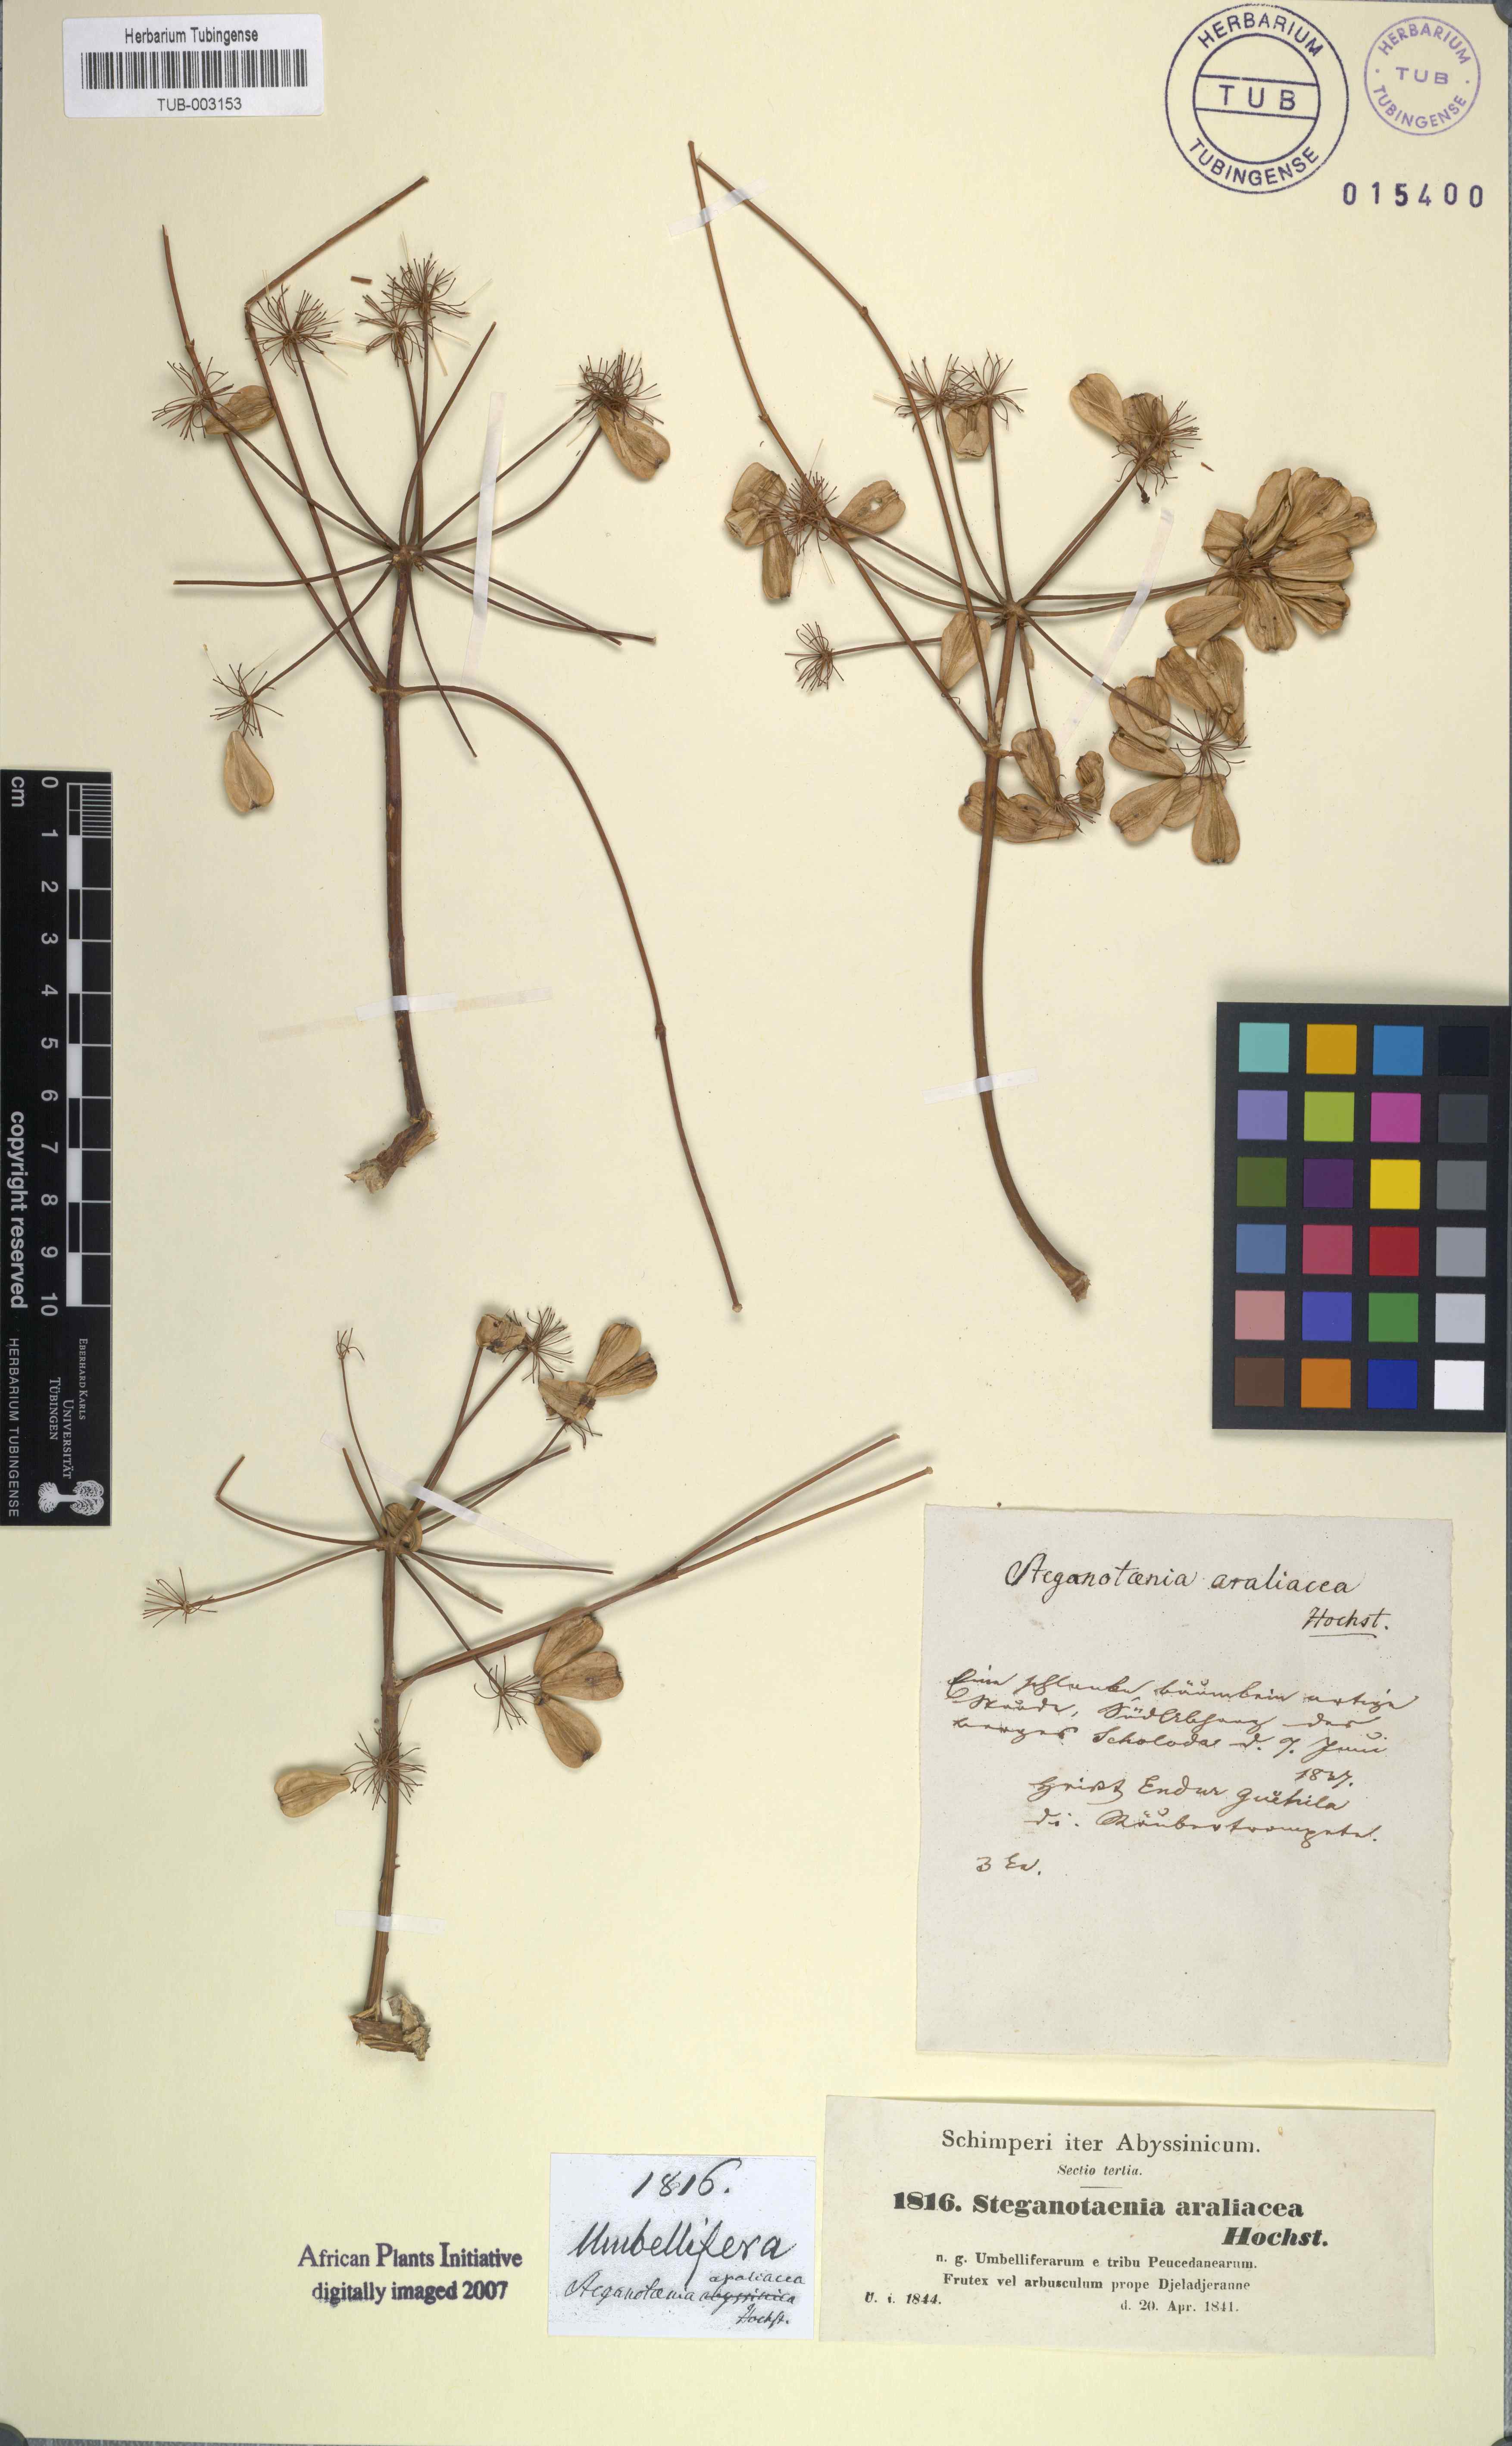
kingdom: Plantae
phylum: Tracheophyta
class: Magnoliopsida
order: Apiales
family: Apiaceae
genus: Steganotaenia
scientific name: Steganotaenia araliacea
